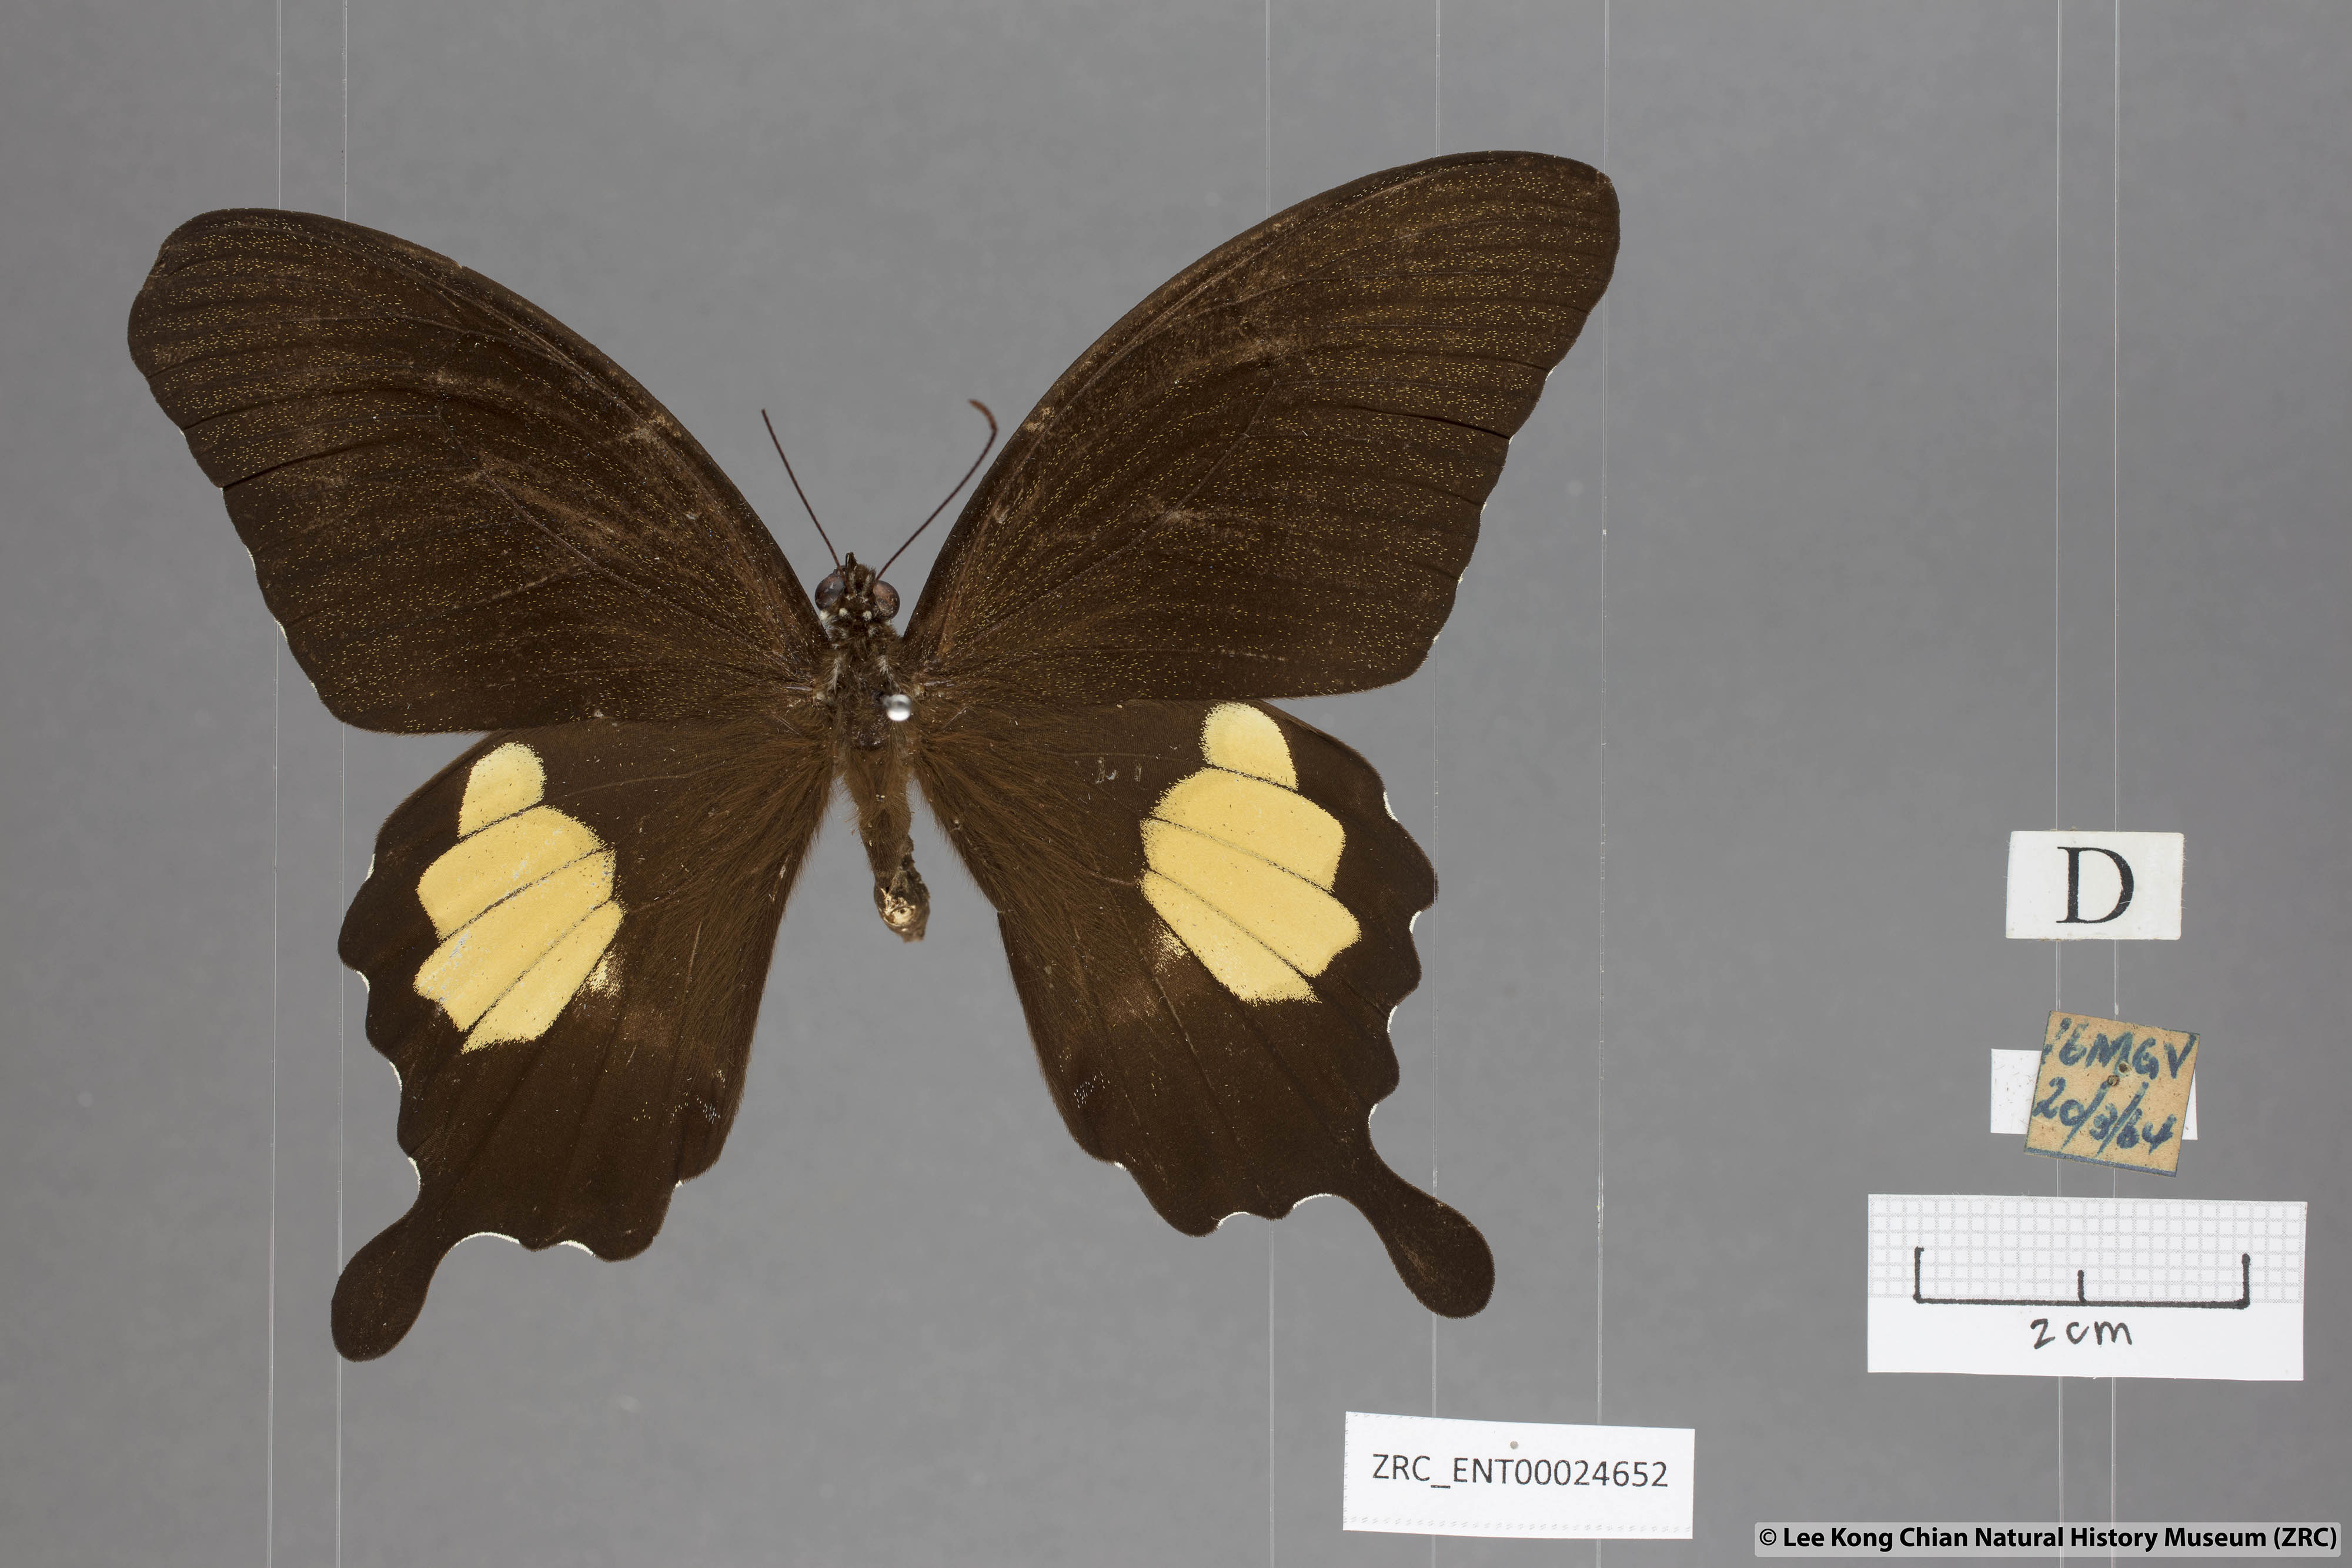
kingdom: Animalia
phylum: Arthropoda
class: Insecta
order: Lepidoptera
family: Papilionidae
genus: Papilio
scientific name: Papilio prexaspes
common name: Blue helen swallowtail
